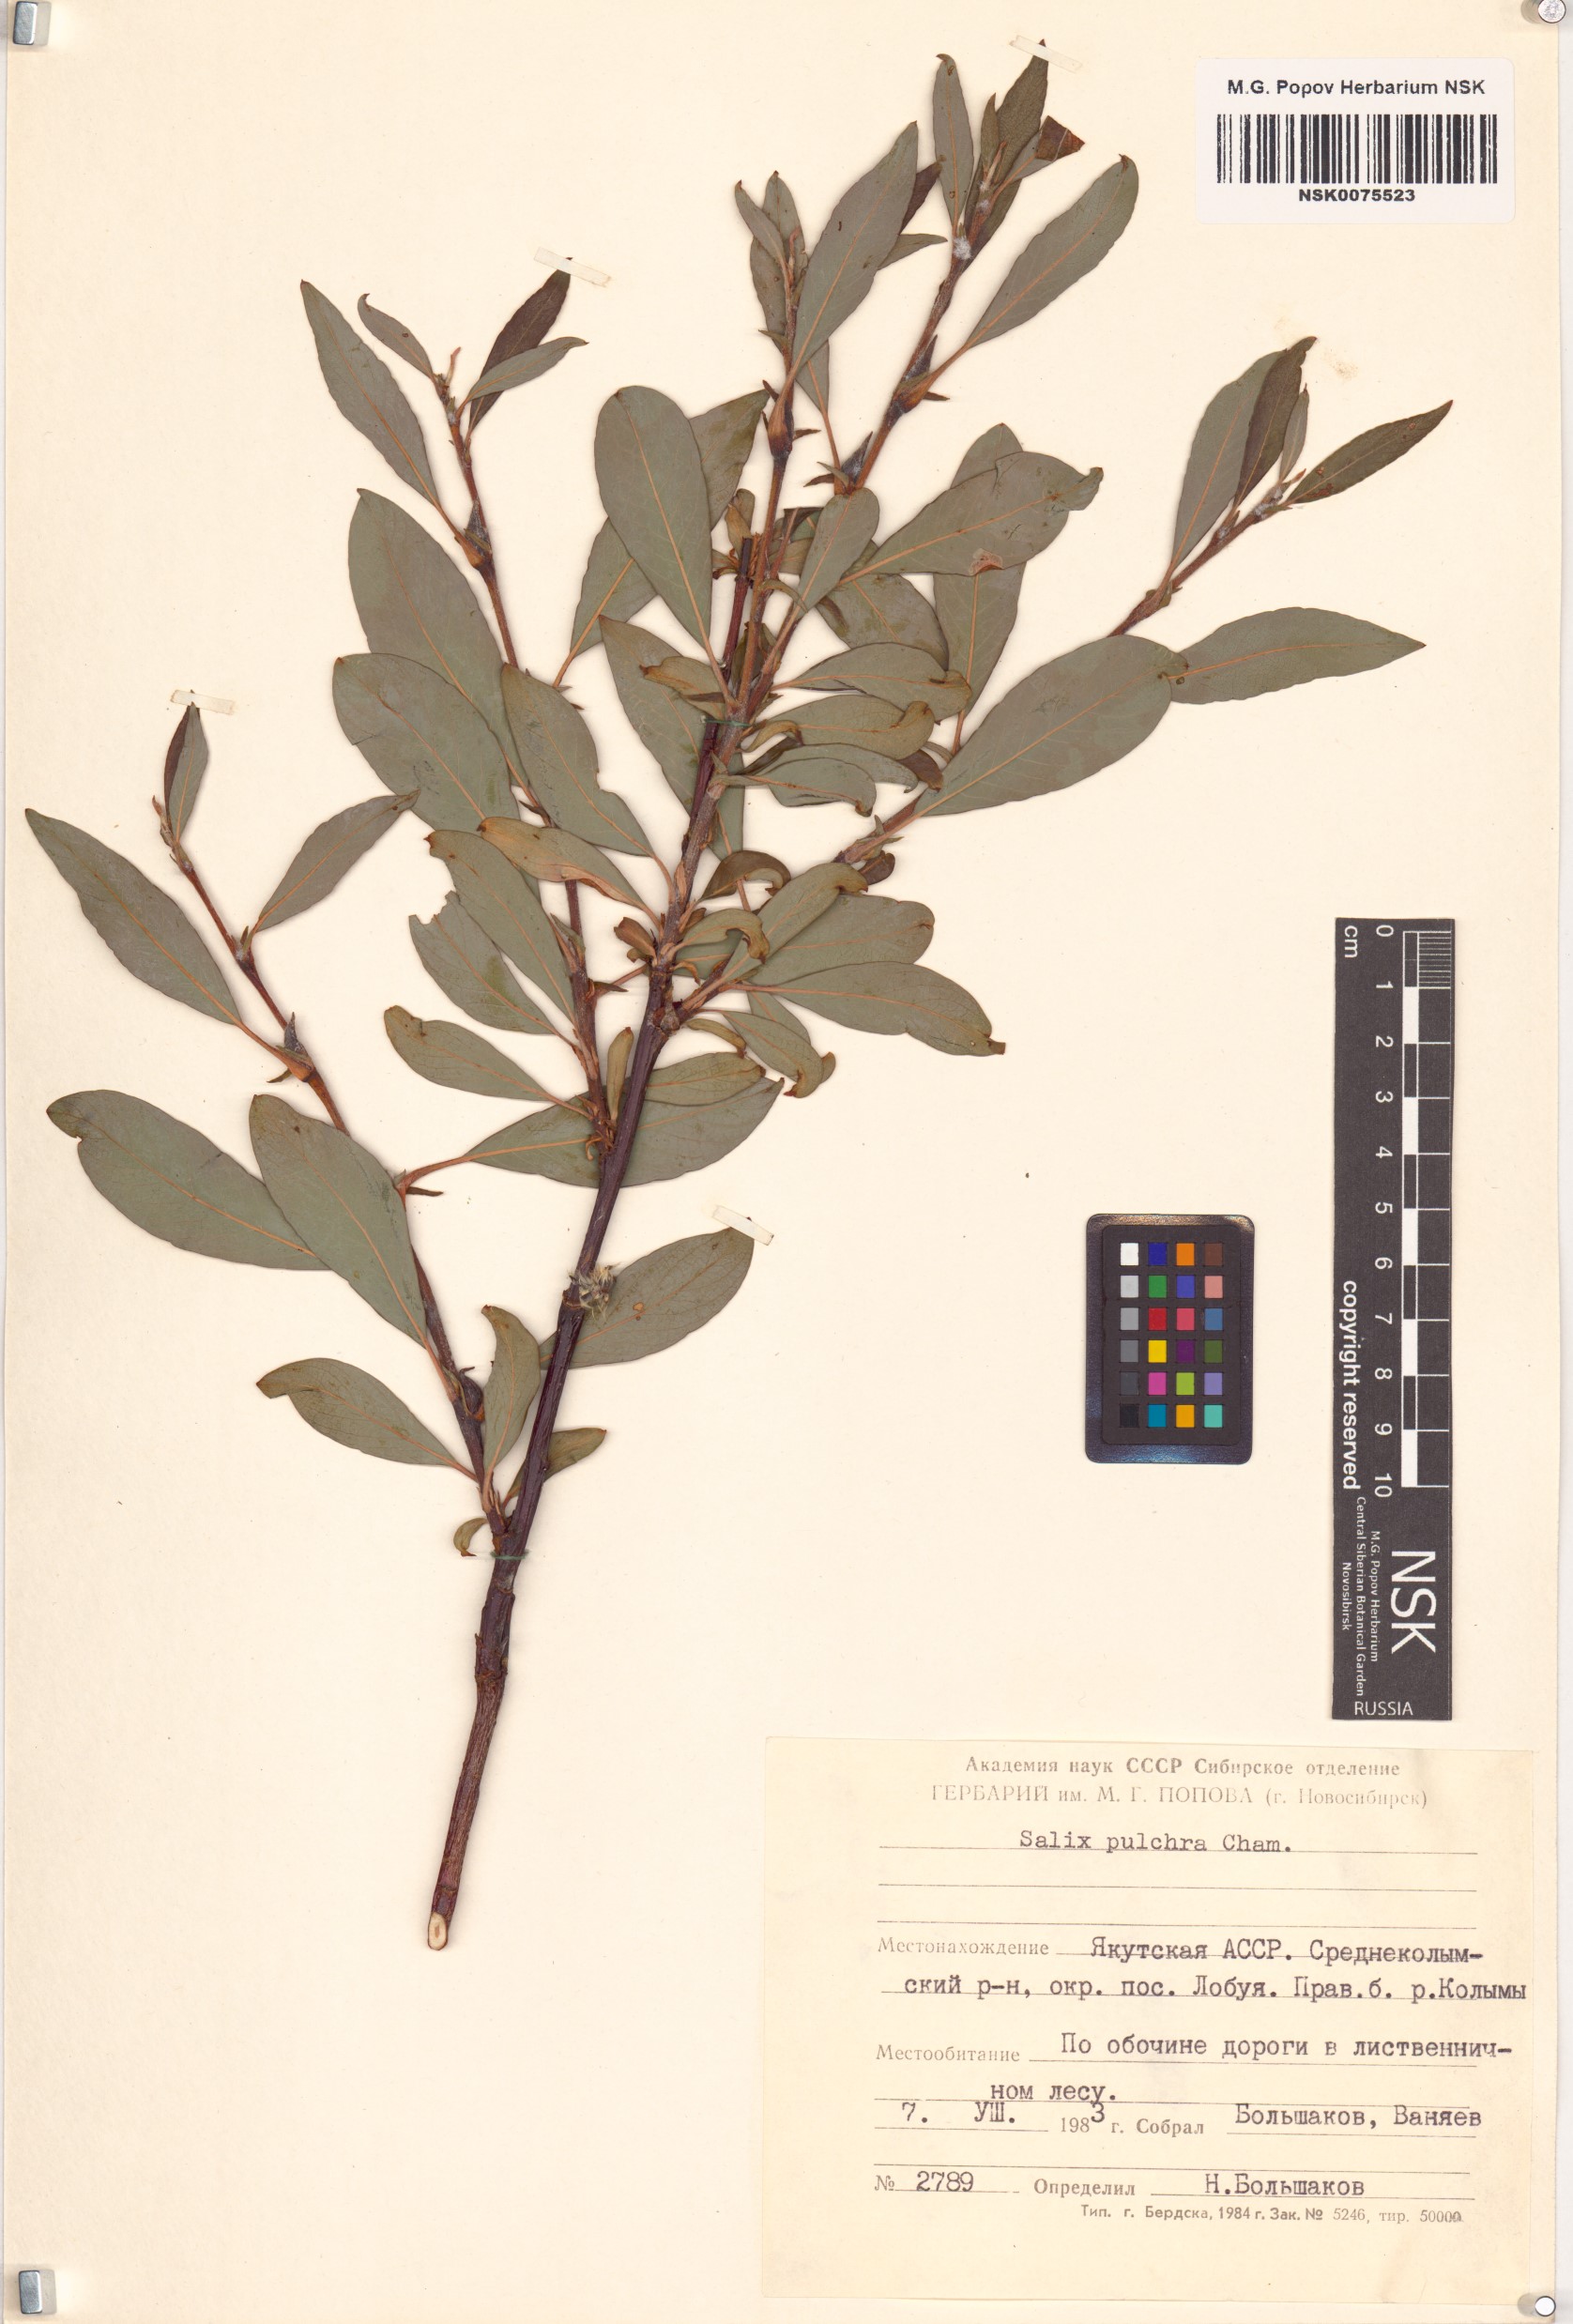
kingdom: Plantae
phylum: Tracheophyta
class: Magnoliopsida
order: Malpighiales
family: Salicaceae
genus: Salix
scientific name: Salix pulchra
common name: Diamond-leaved willow
